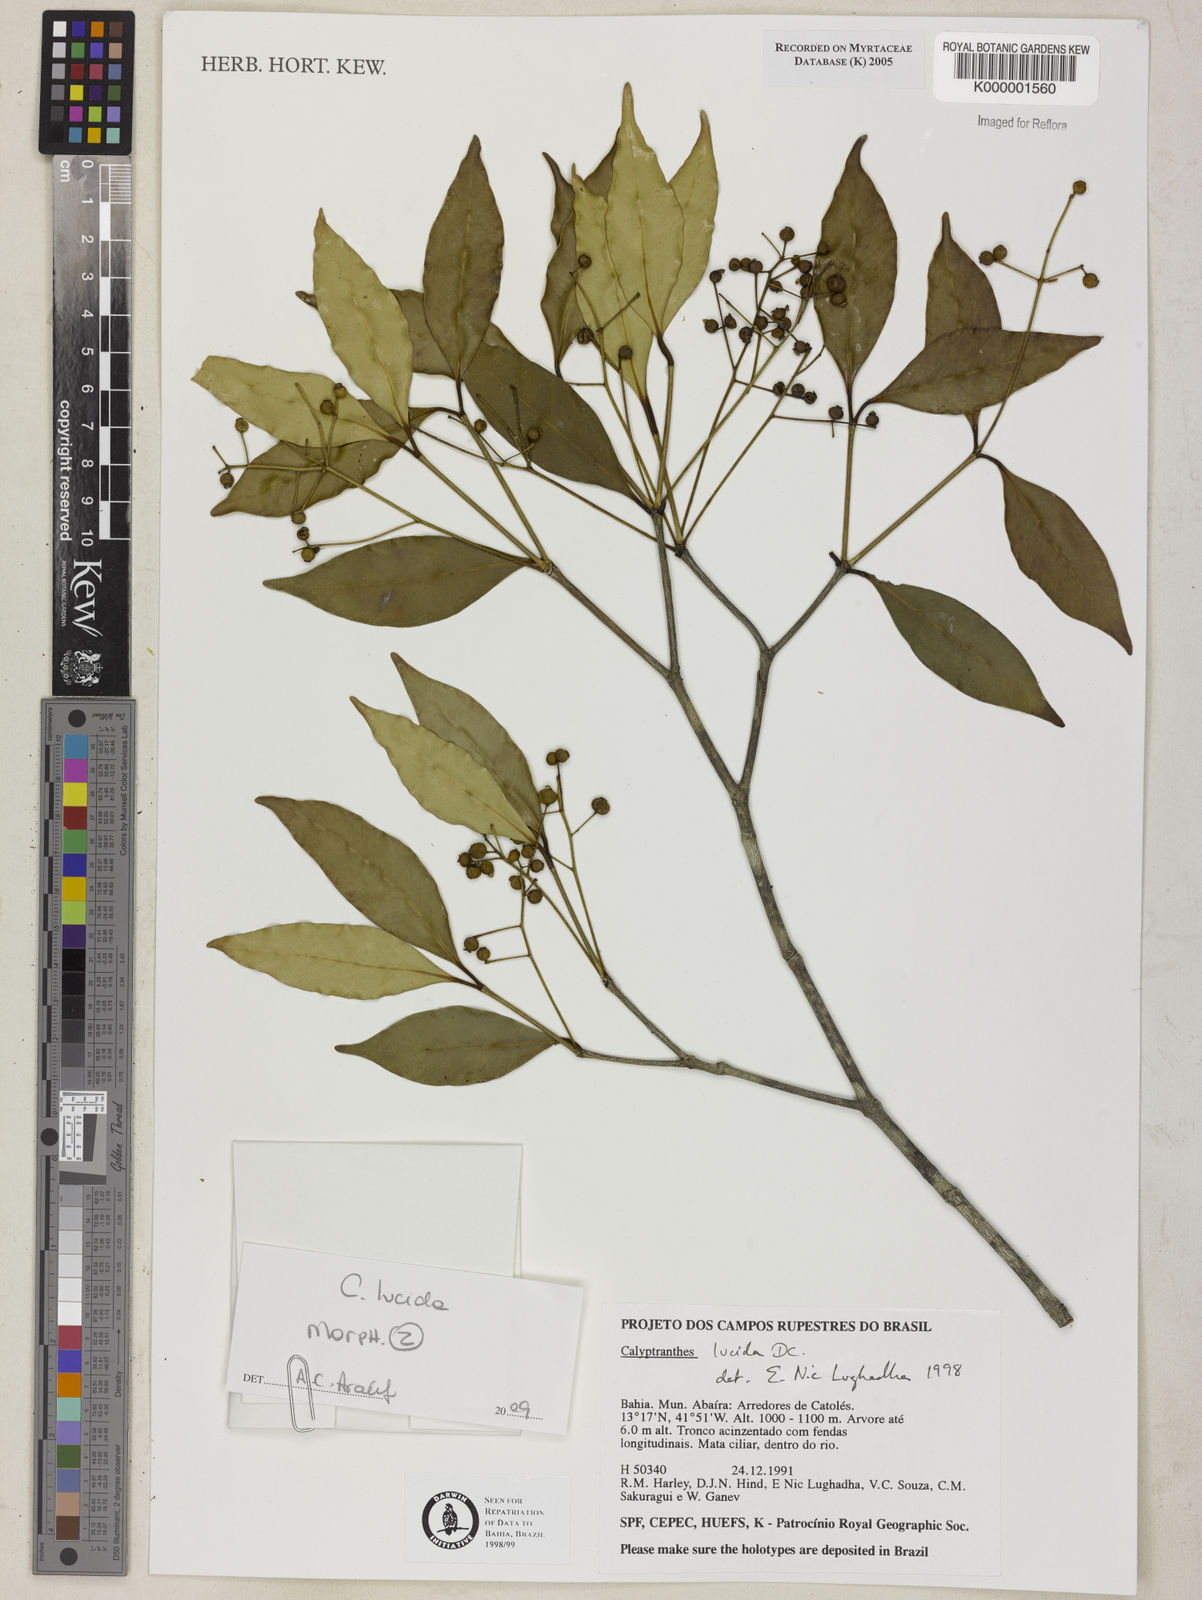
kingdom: Plantae
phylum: Tracheophyta
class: Magnoliopsida
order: Myrtales
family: Myrtaceae
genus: Myrcia
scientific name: Myrcia neolucida
